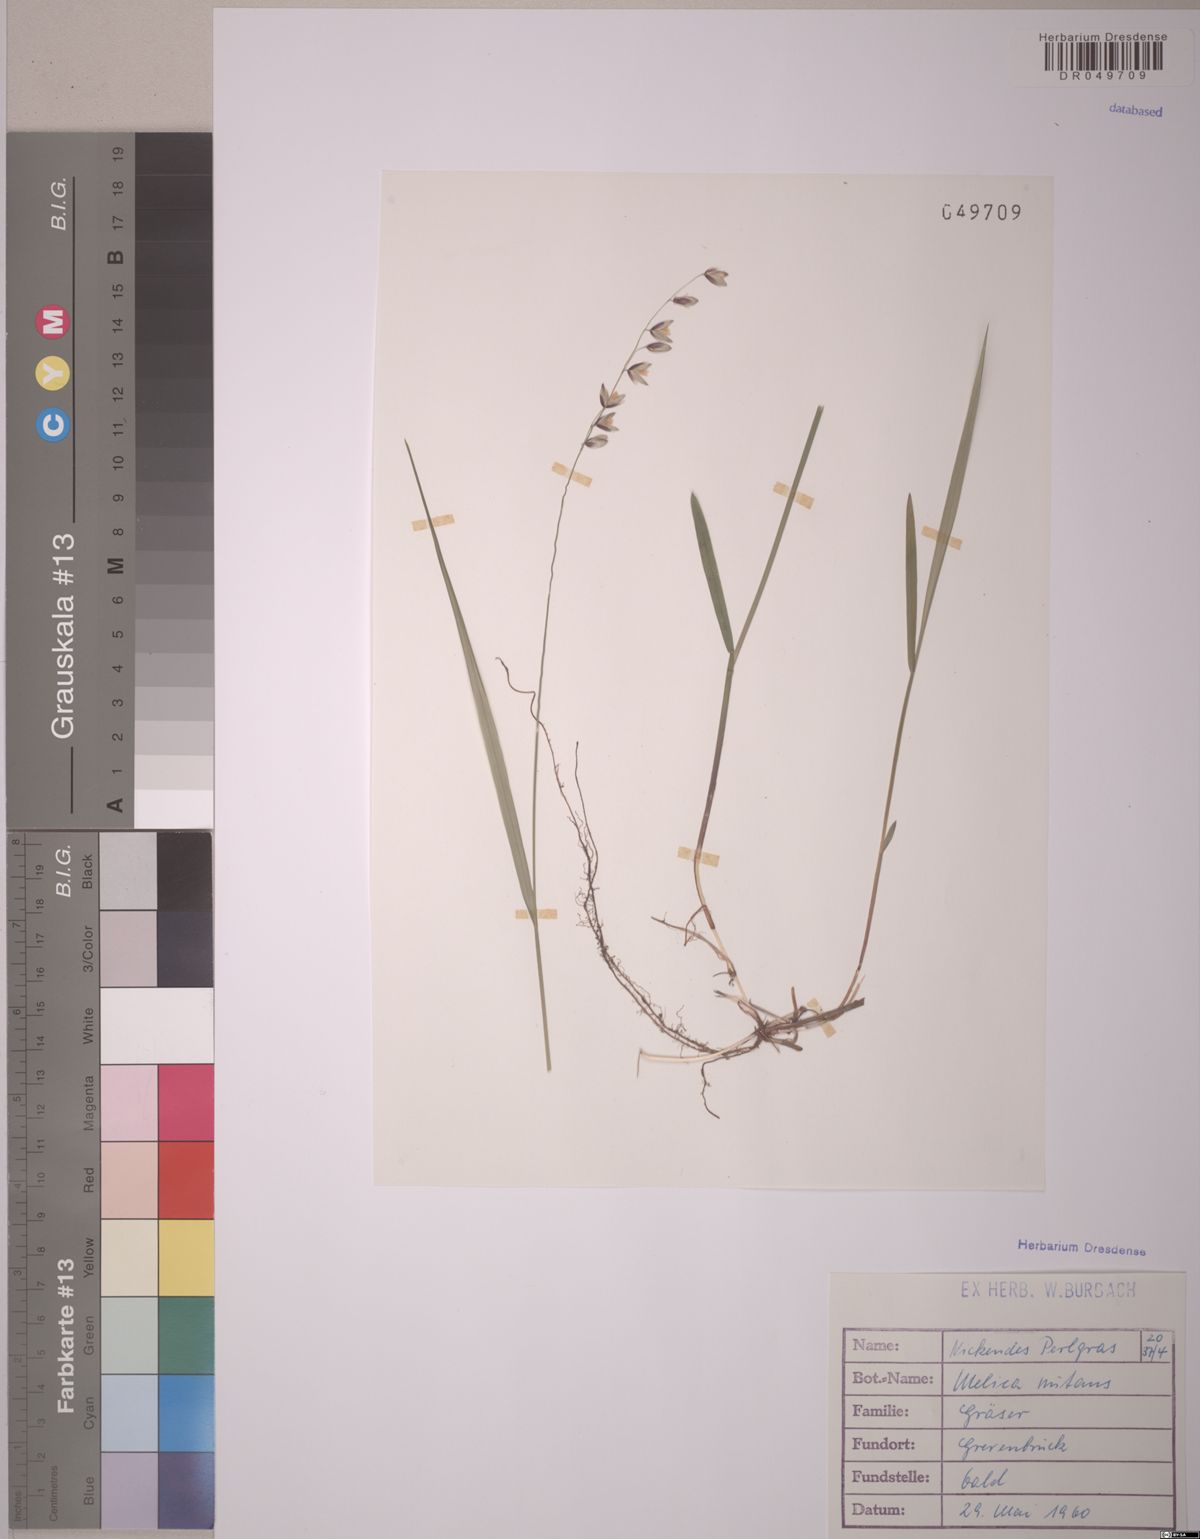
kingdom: Plantae
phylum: Tracheophyta
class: Liliopsida
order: Poales
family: Poaceae
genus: Melica
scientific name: Melica nutans
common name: Mountain melick
